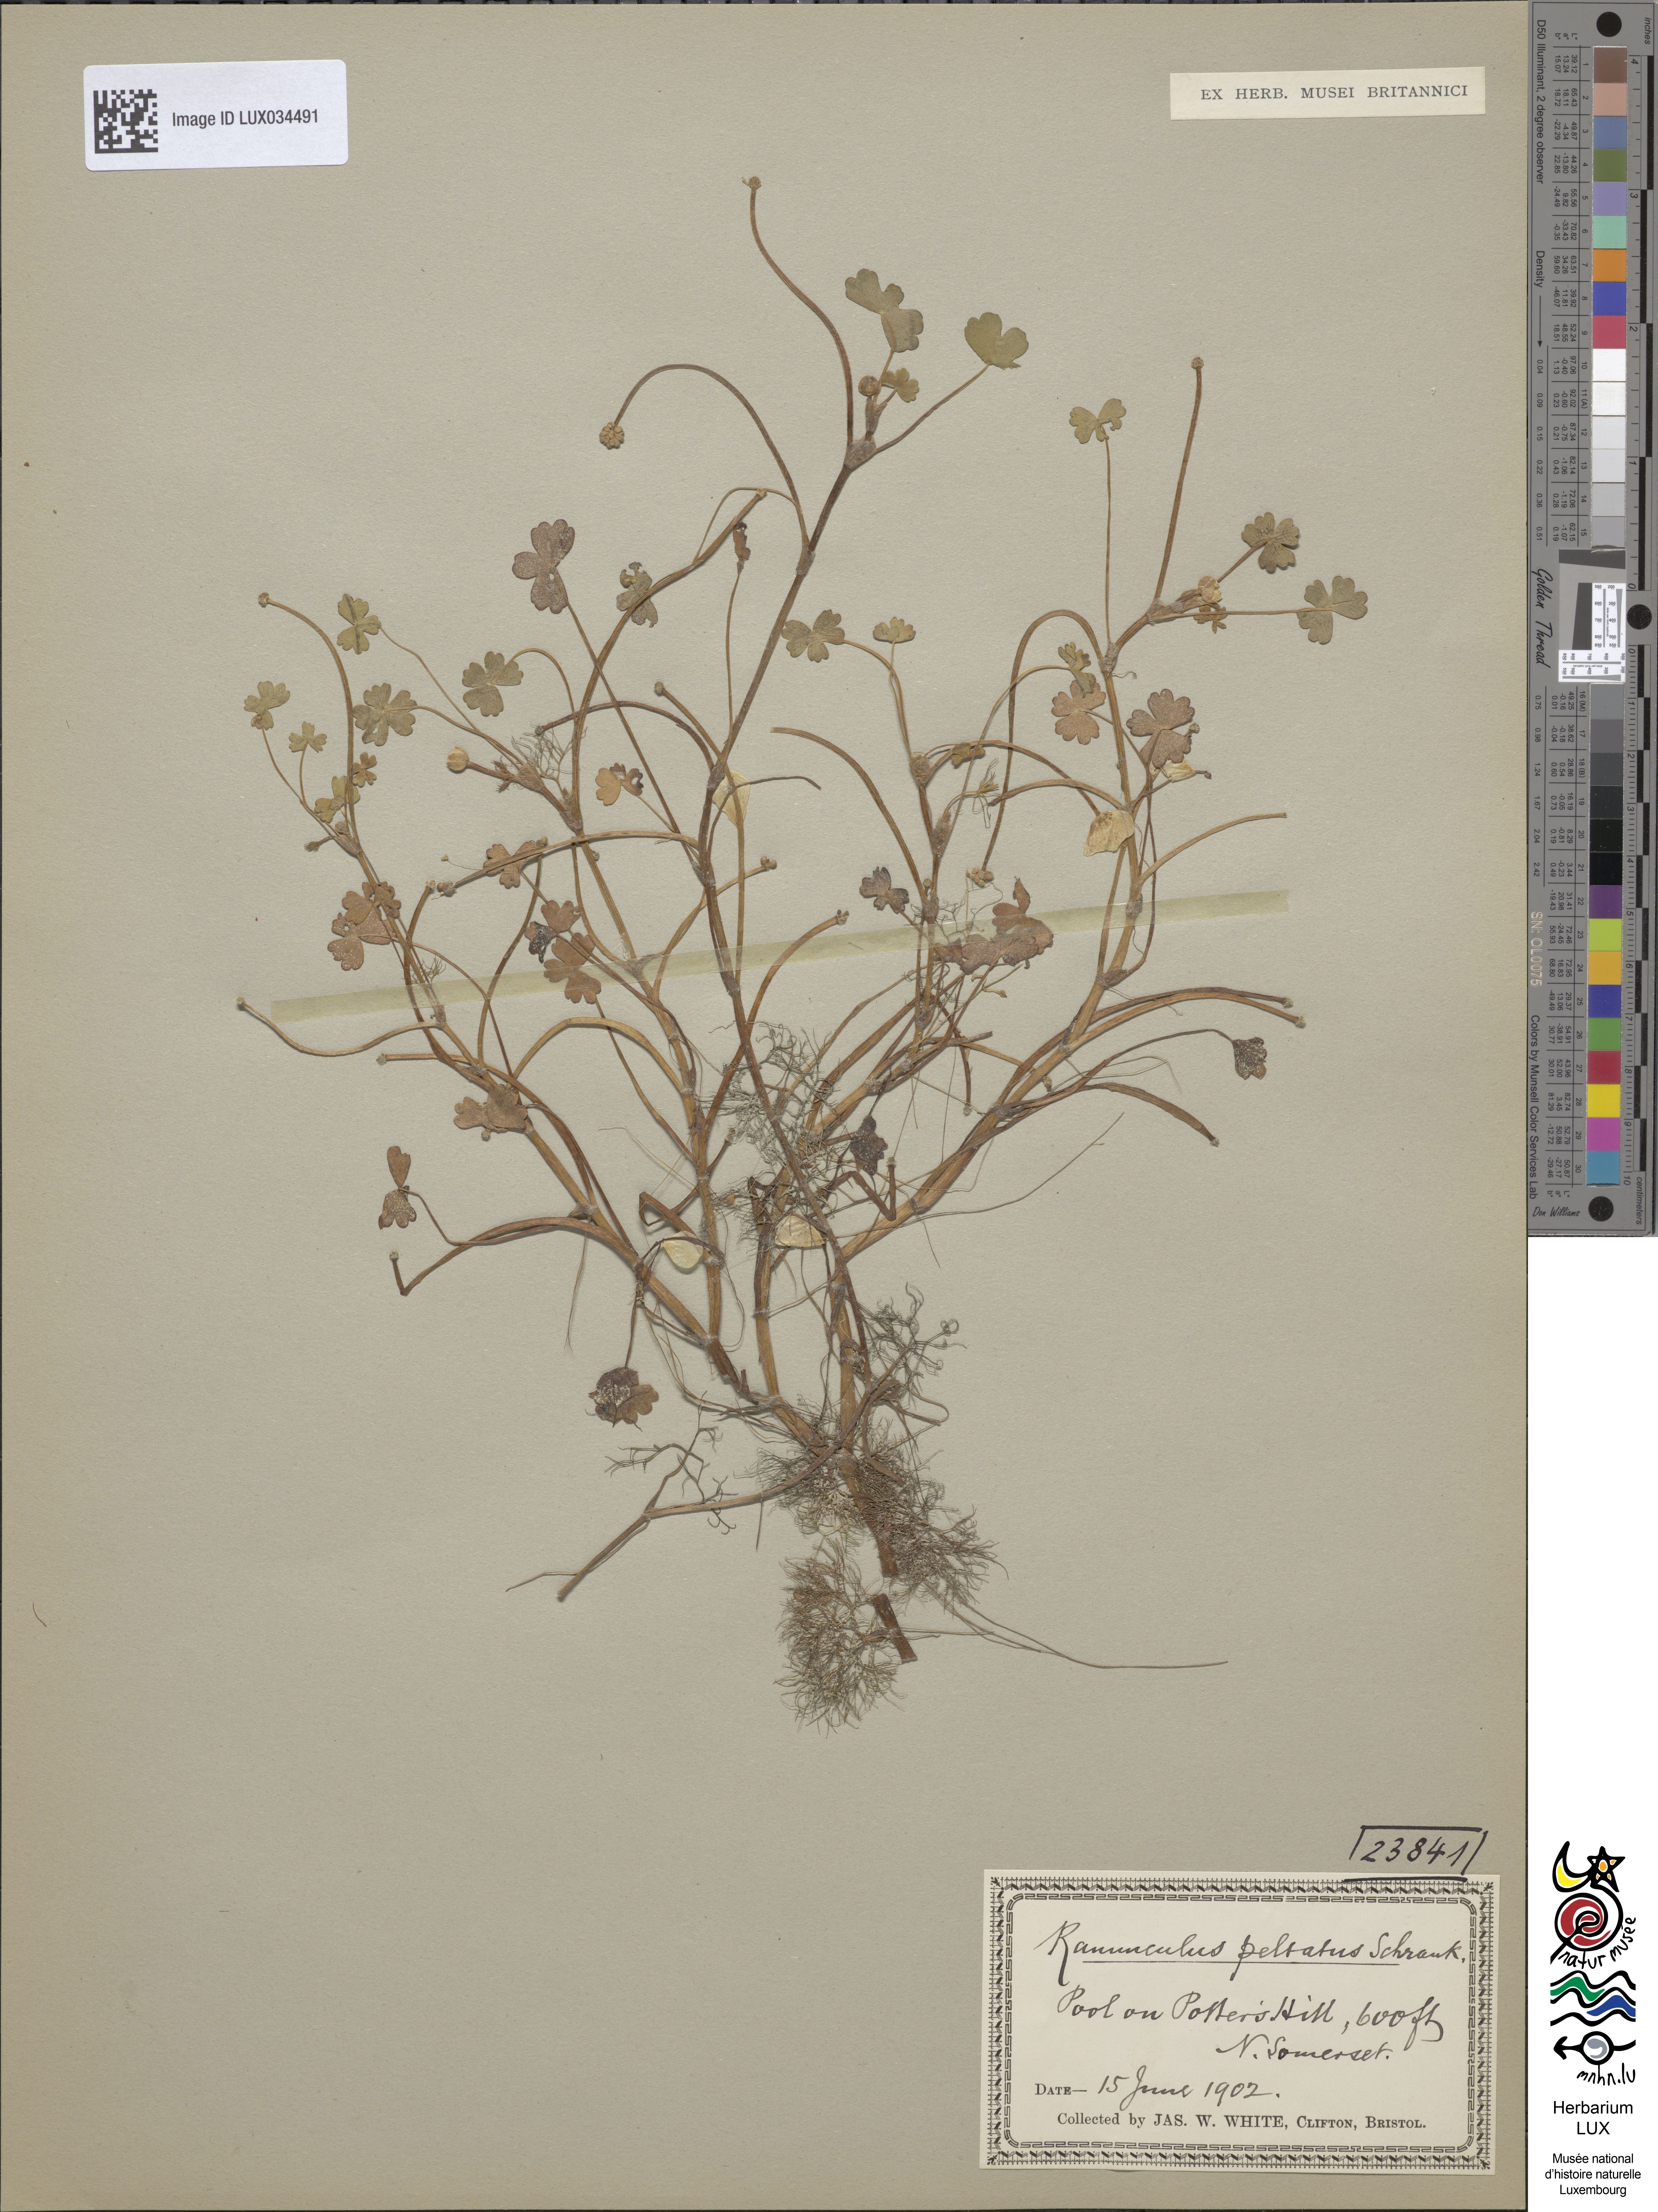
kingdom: Plantae
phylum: Tracheophyta
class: Magnoliopsida
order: Ranunculales
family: Ranunculaceae
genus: Ranunculus
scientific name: Ranunculus peltatus
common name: Pond water-crowfoot
